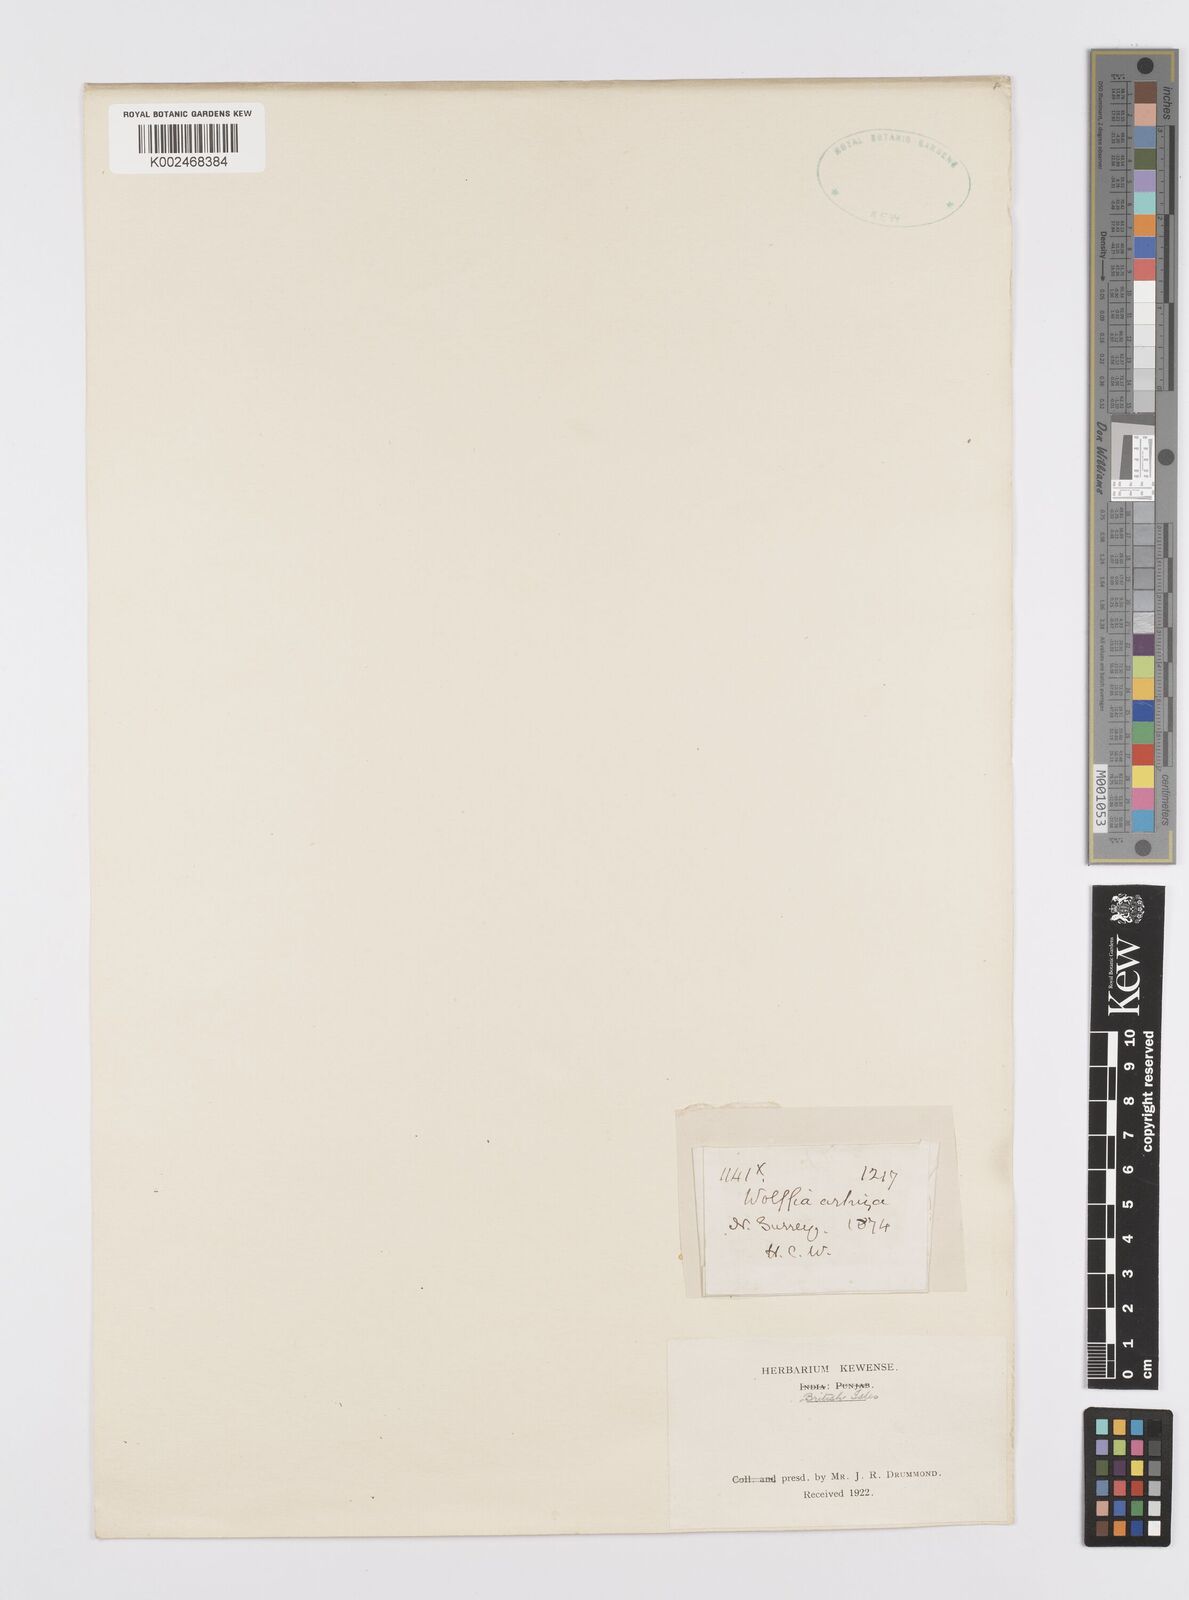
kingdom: Plantae
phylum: Tracheophyta
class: Liliopsida
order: Alismatales
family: Araceae
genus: Wolffia
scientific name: Wolffia arrhiza
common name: Rootless duckweed
